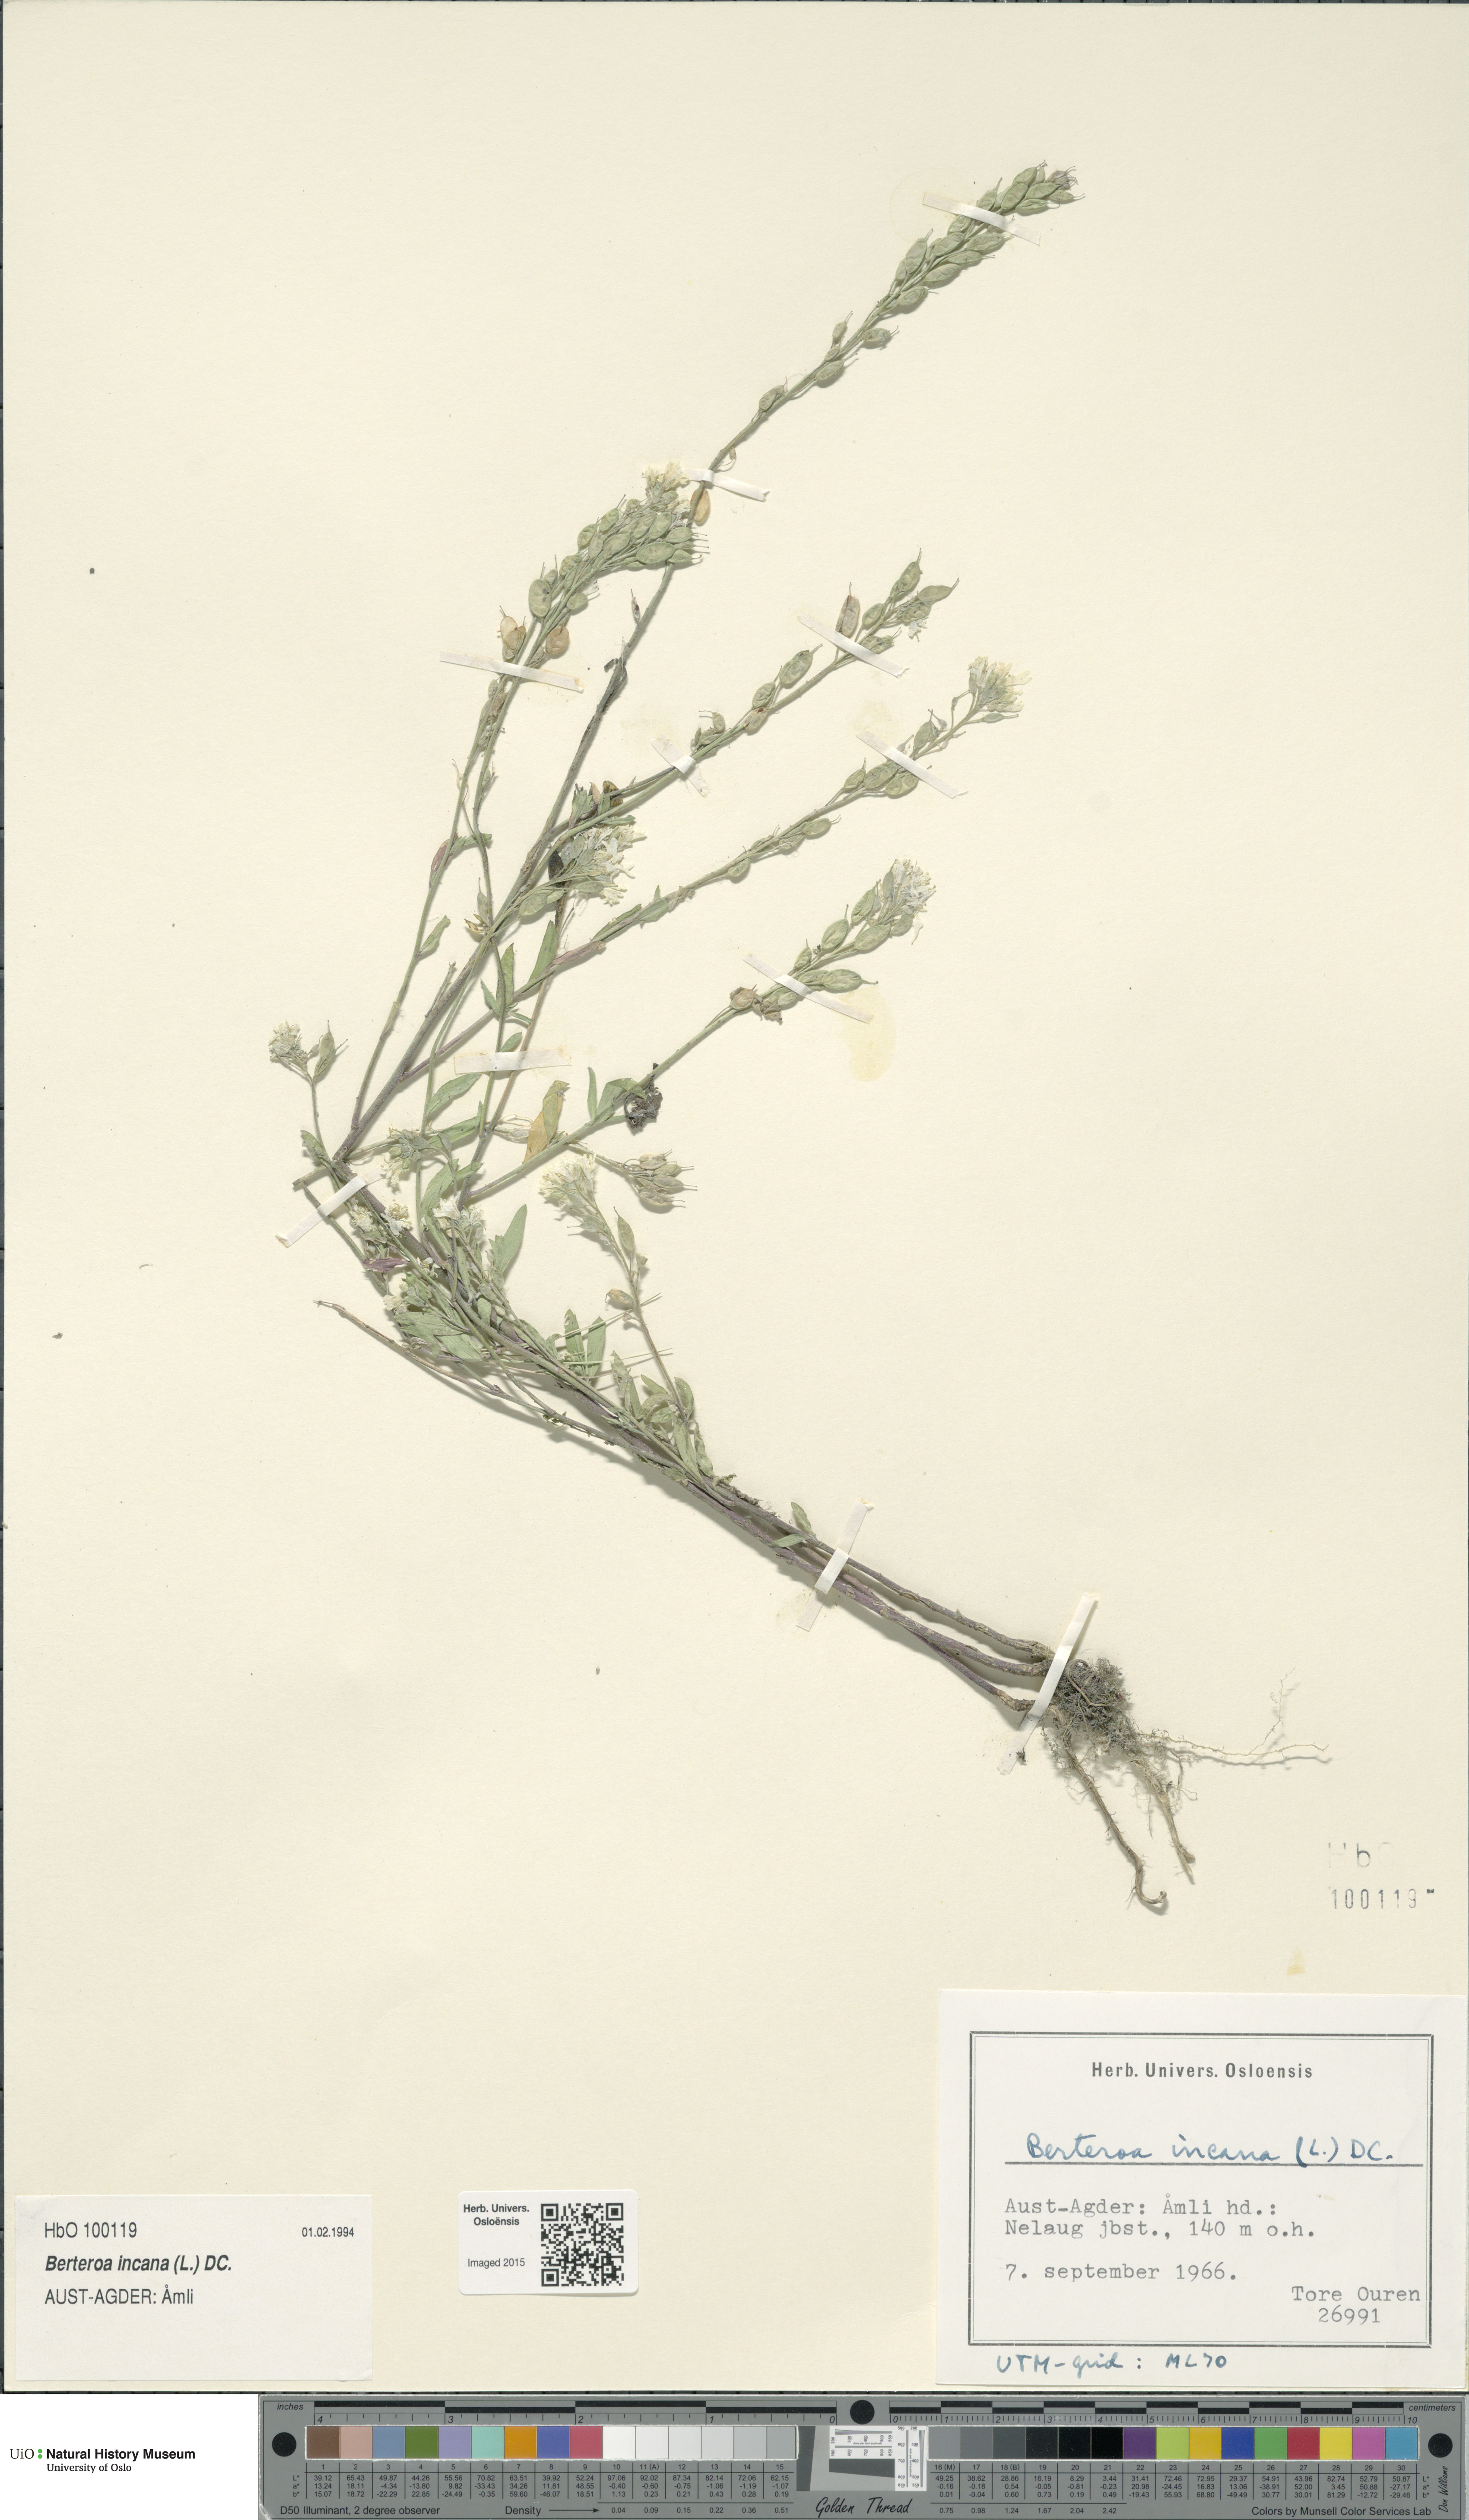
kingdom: Plantae
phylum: Tracheophyta
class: Magnoliopsida
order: Brassicales
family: Brassicaceae
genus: Berteroa
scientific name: Berteroa incana
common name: Hoary alison
